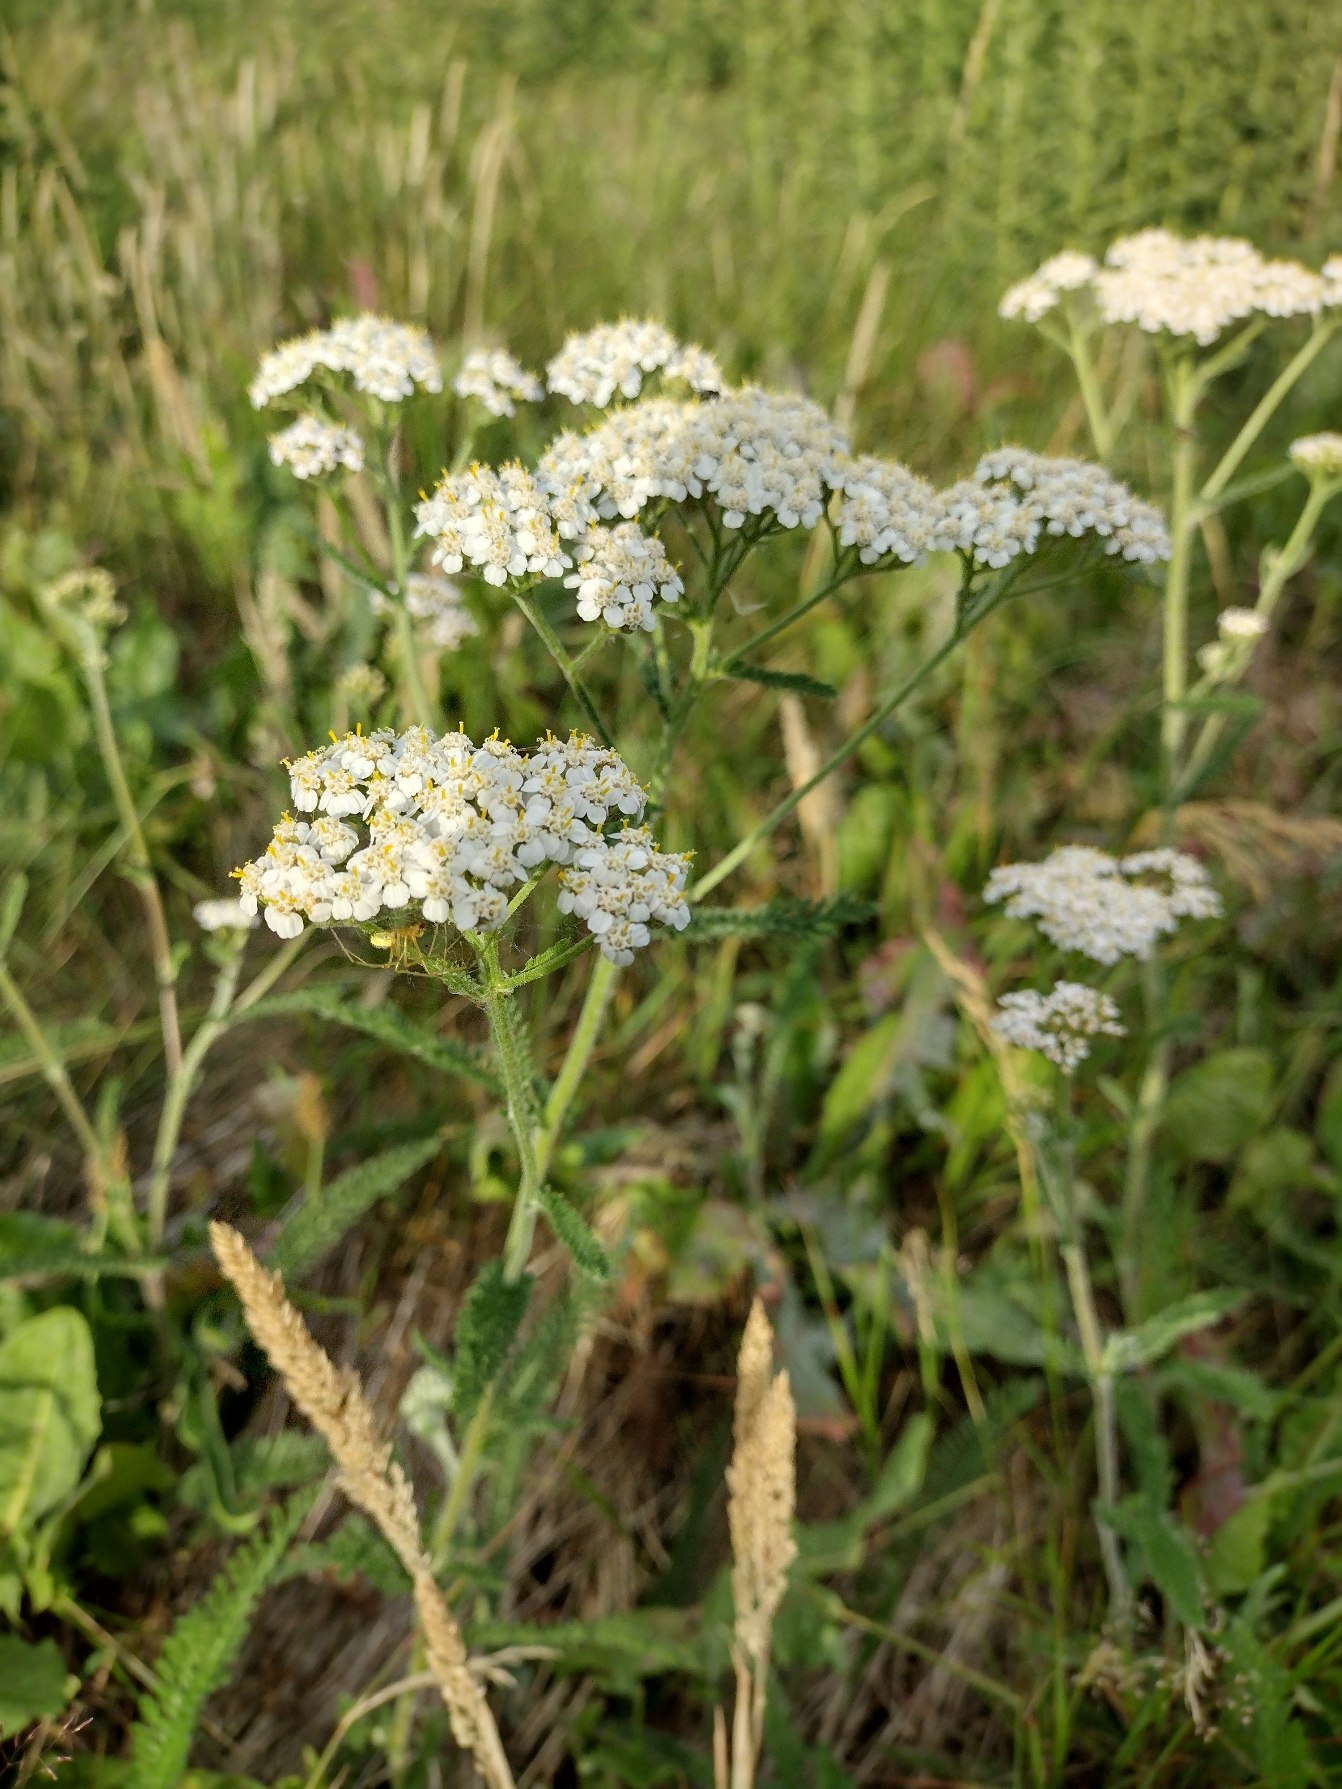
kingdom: Plantae
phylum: Tracheophyta
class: Magnoliopsida
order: Asterales
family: Asteraceae
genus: Achillea
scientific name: Achillea millefolium
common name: Almindelig røllike
